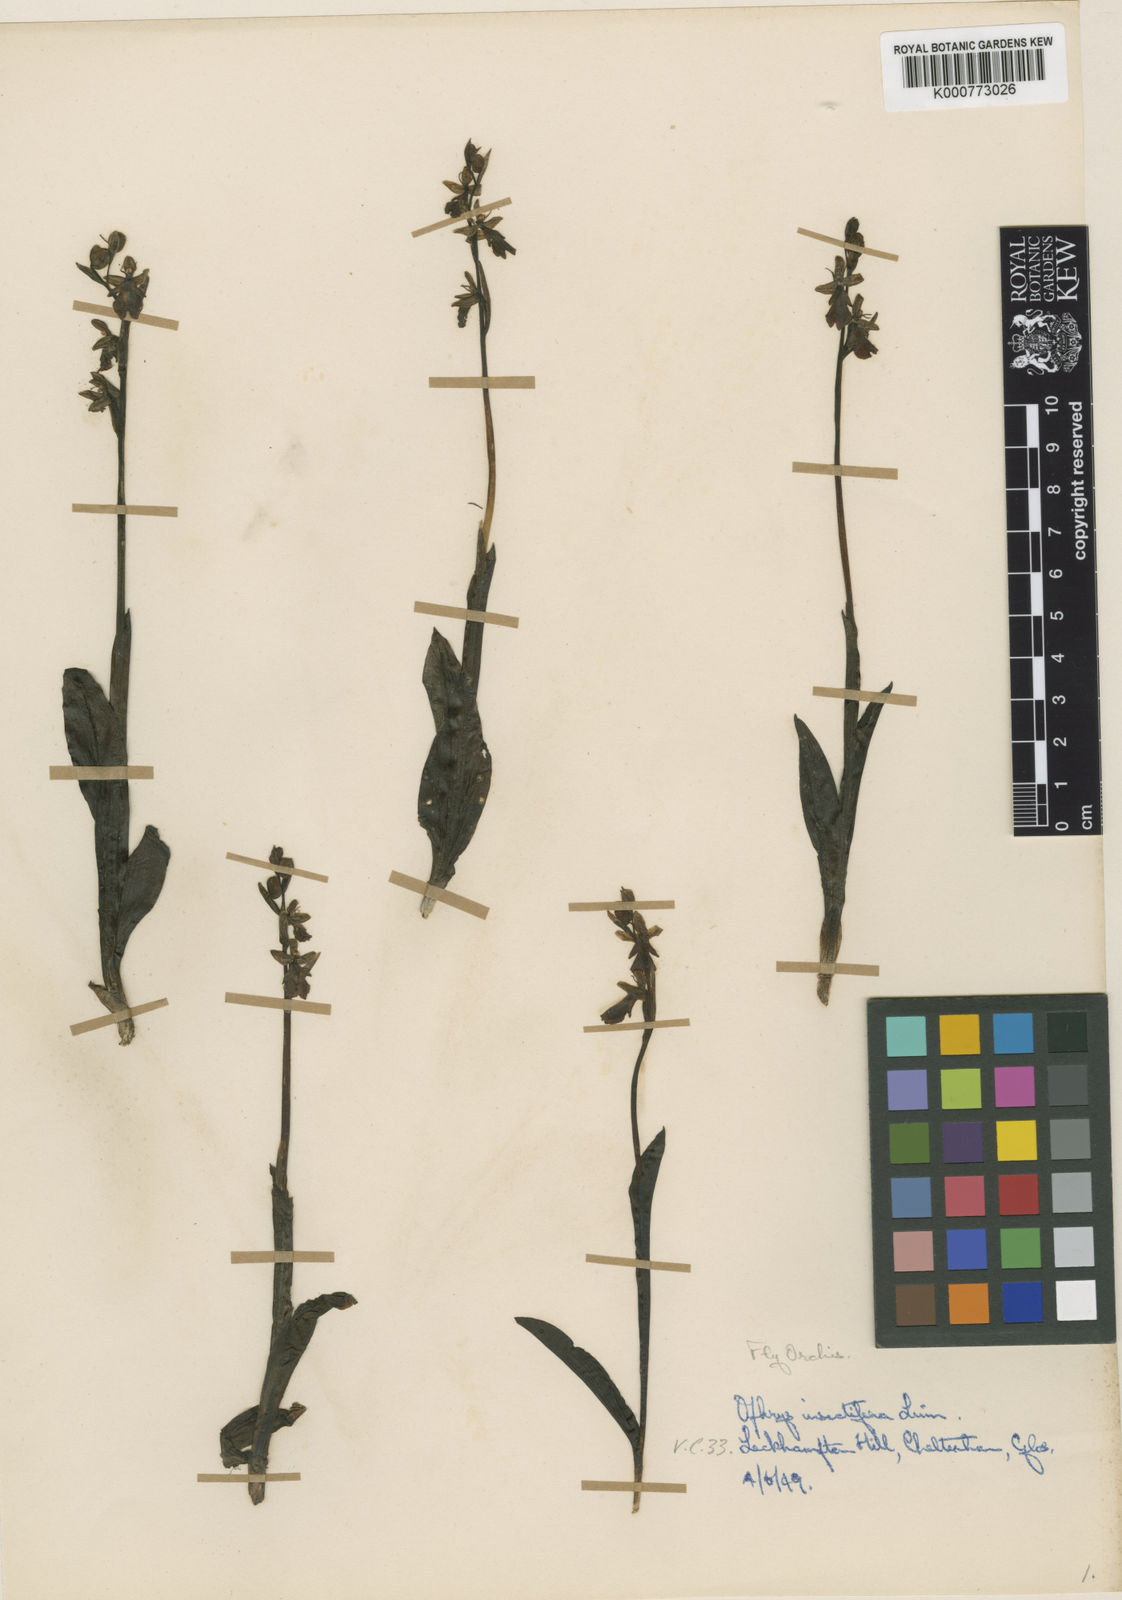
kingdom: Plantae
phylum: Tracheophyta
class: Liliopsida
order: Asparagales
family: Orchidaceae
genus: Ophrys
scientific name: Ophrys insectifera
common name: Fly orchid
